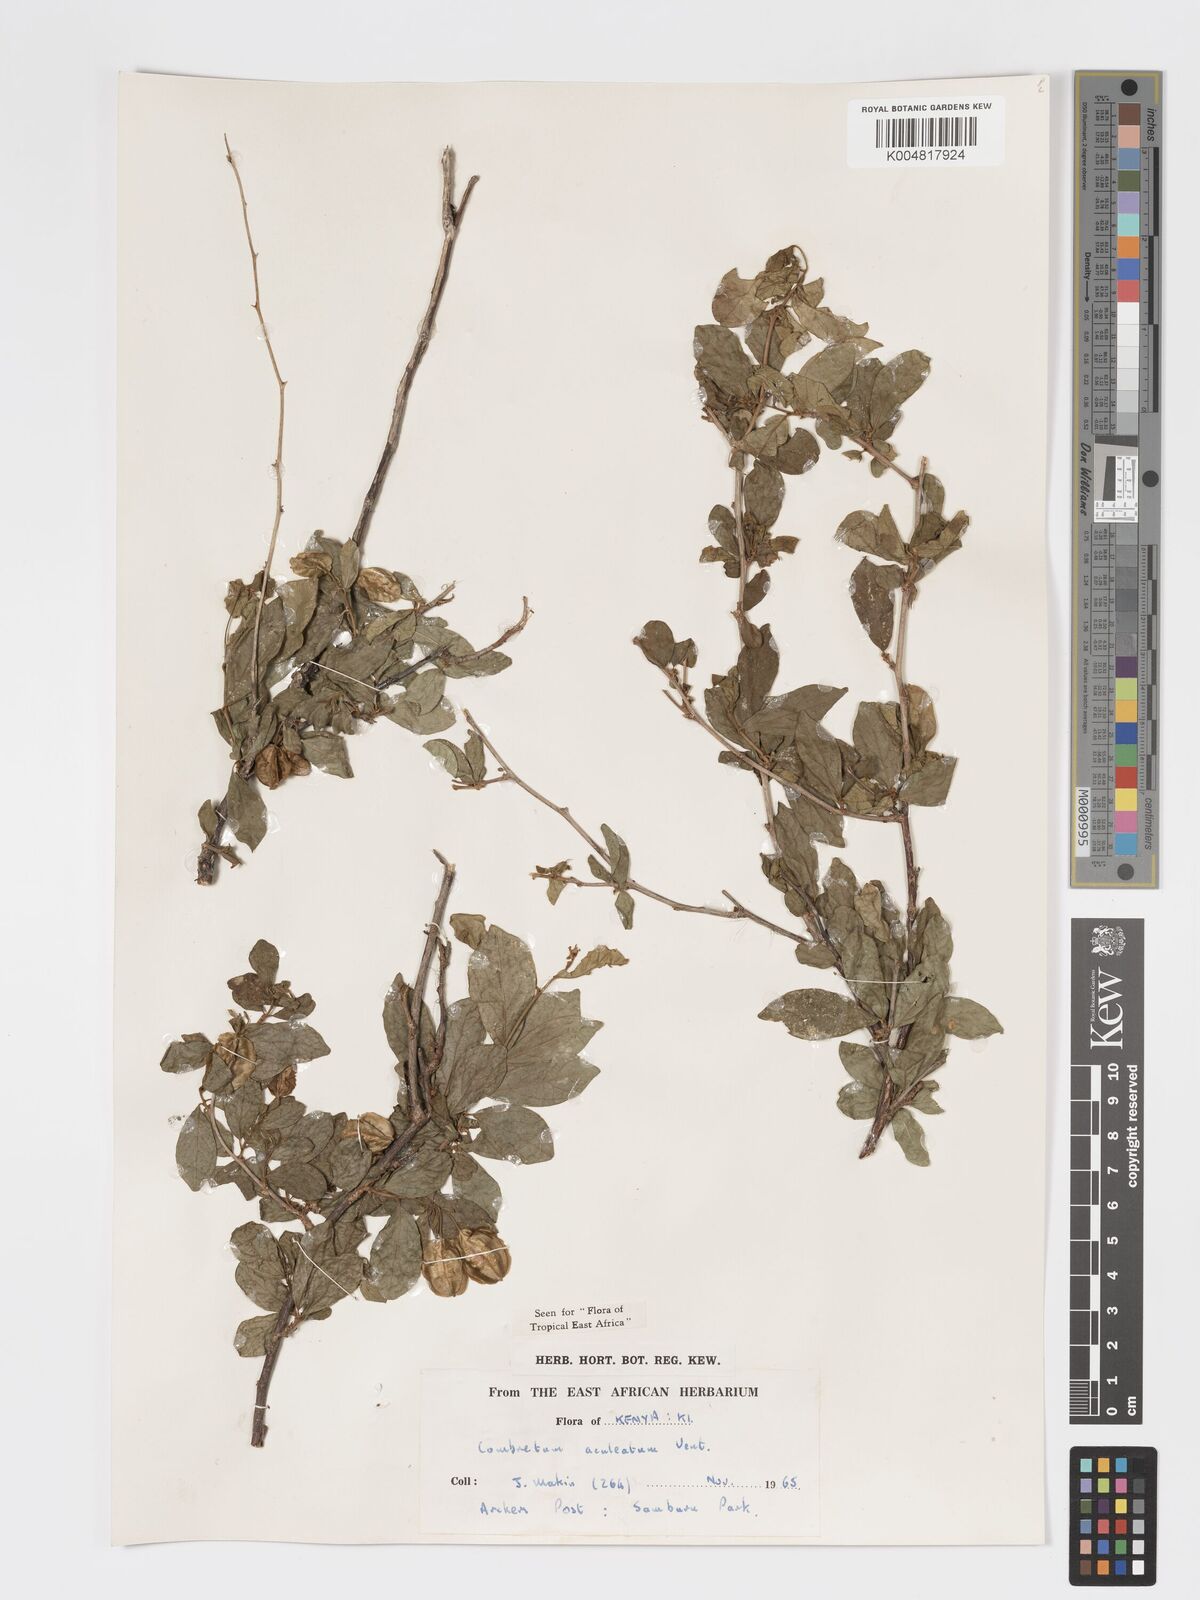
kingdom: Plantae
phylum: Tracheophyta
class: Magnoliopsida
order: Myrtales
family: Combretaceae
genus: Combretum
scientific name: Combretum aculeatum
